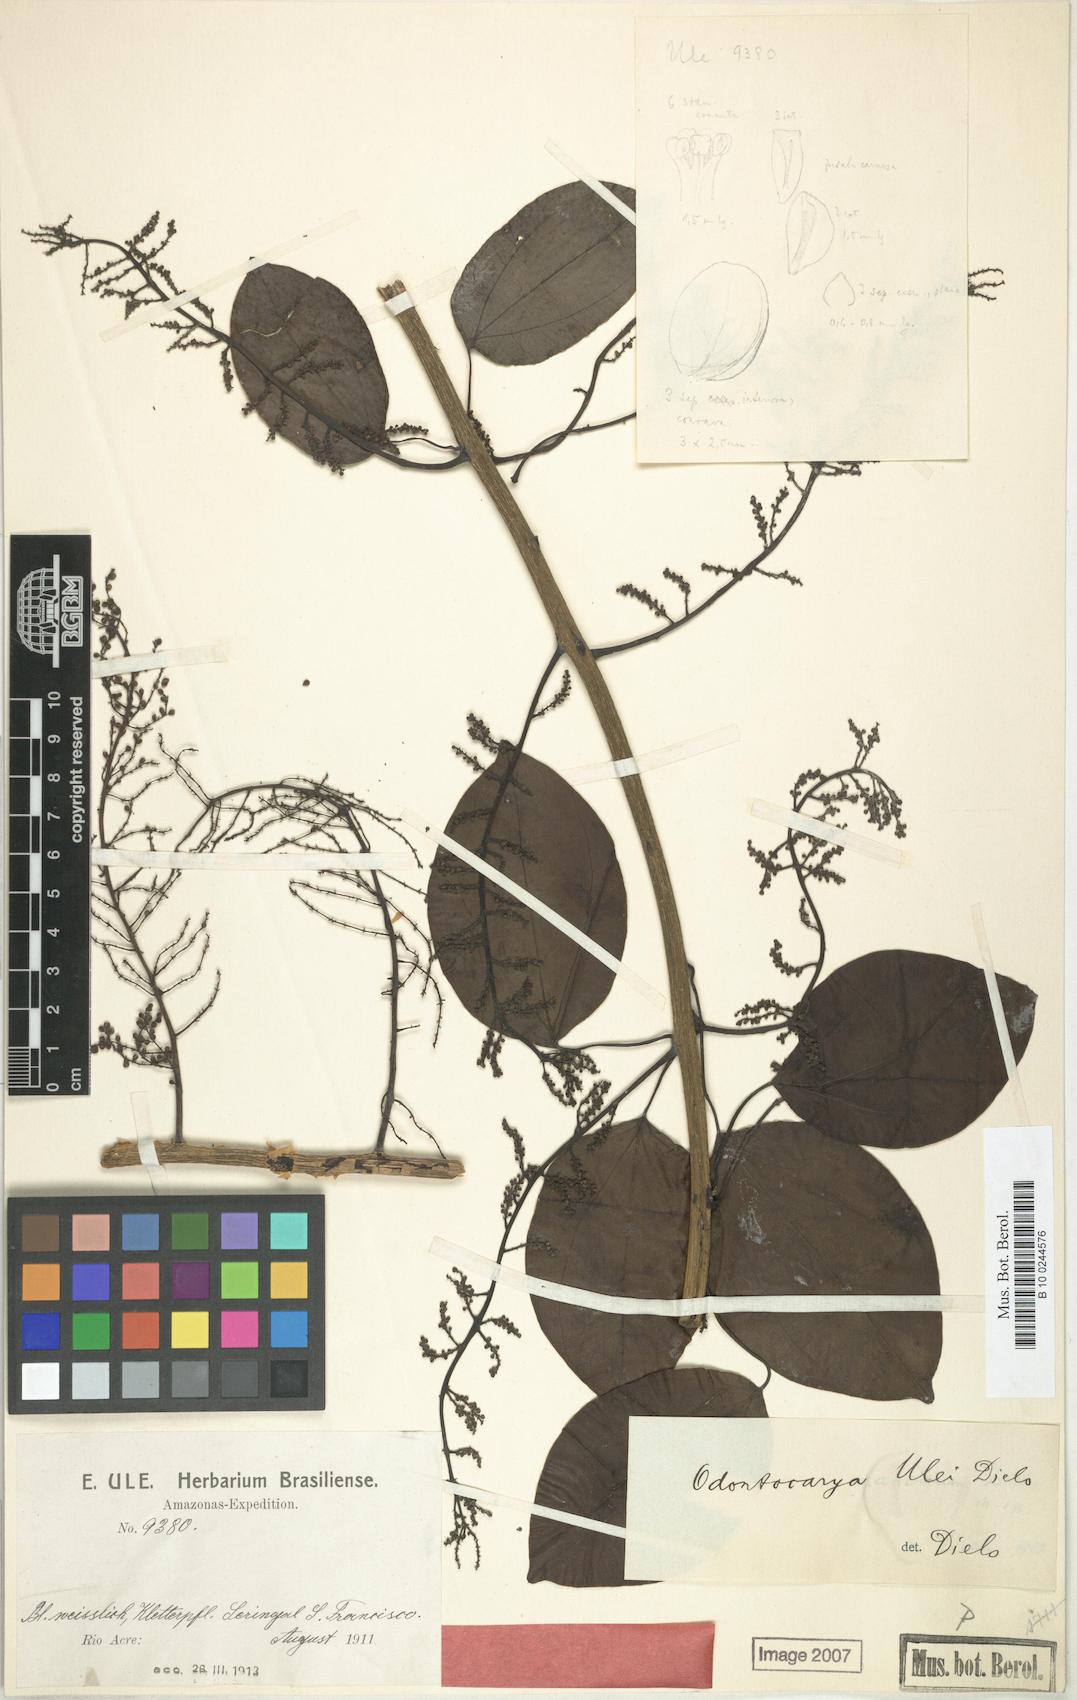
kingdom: Plantae
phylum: Tracheophyta
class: Magnoliopsida
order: Ranunculales
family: Menispermaceae
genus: Odontocarya
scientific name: Odontocarya ulei
